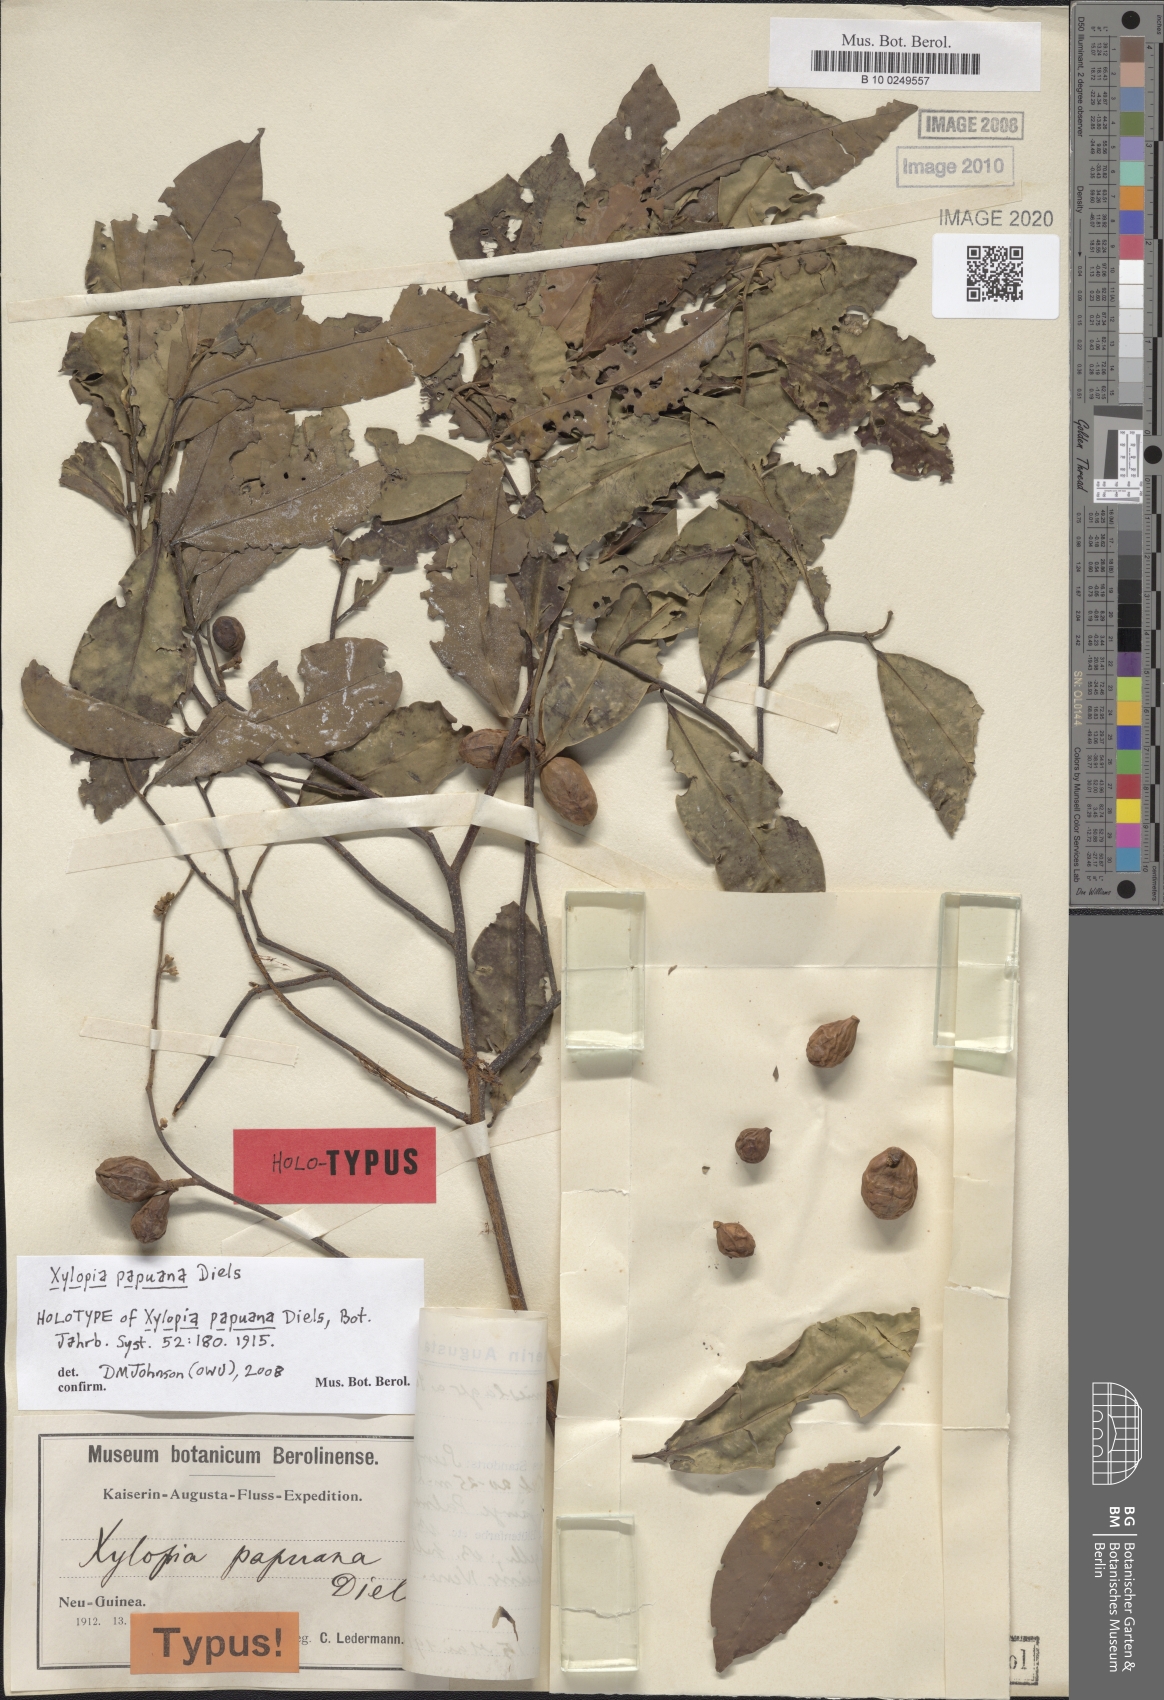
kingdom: Plantae
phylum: Tracheophyta
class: Magnoliopsida
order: Magnoliales
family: Annonaceae
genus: Xylopia
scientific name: Xylopia papuana
